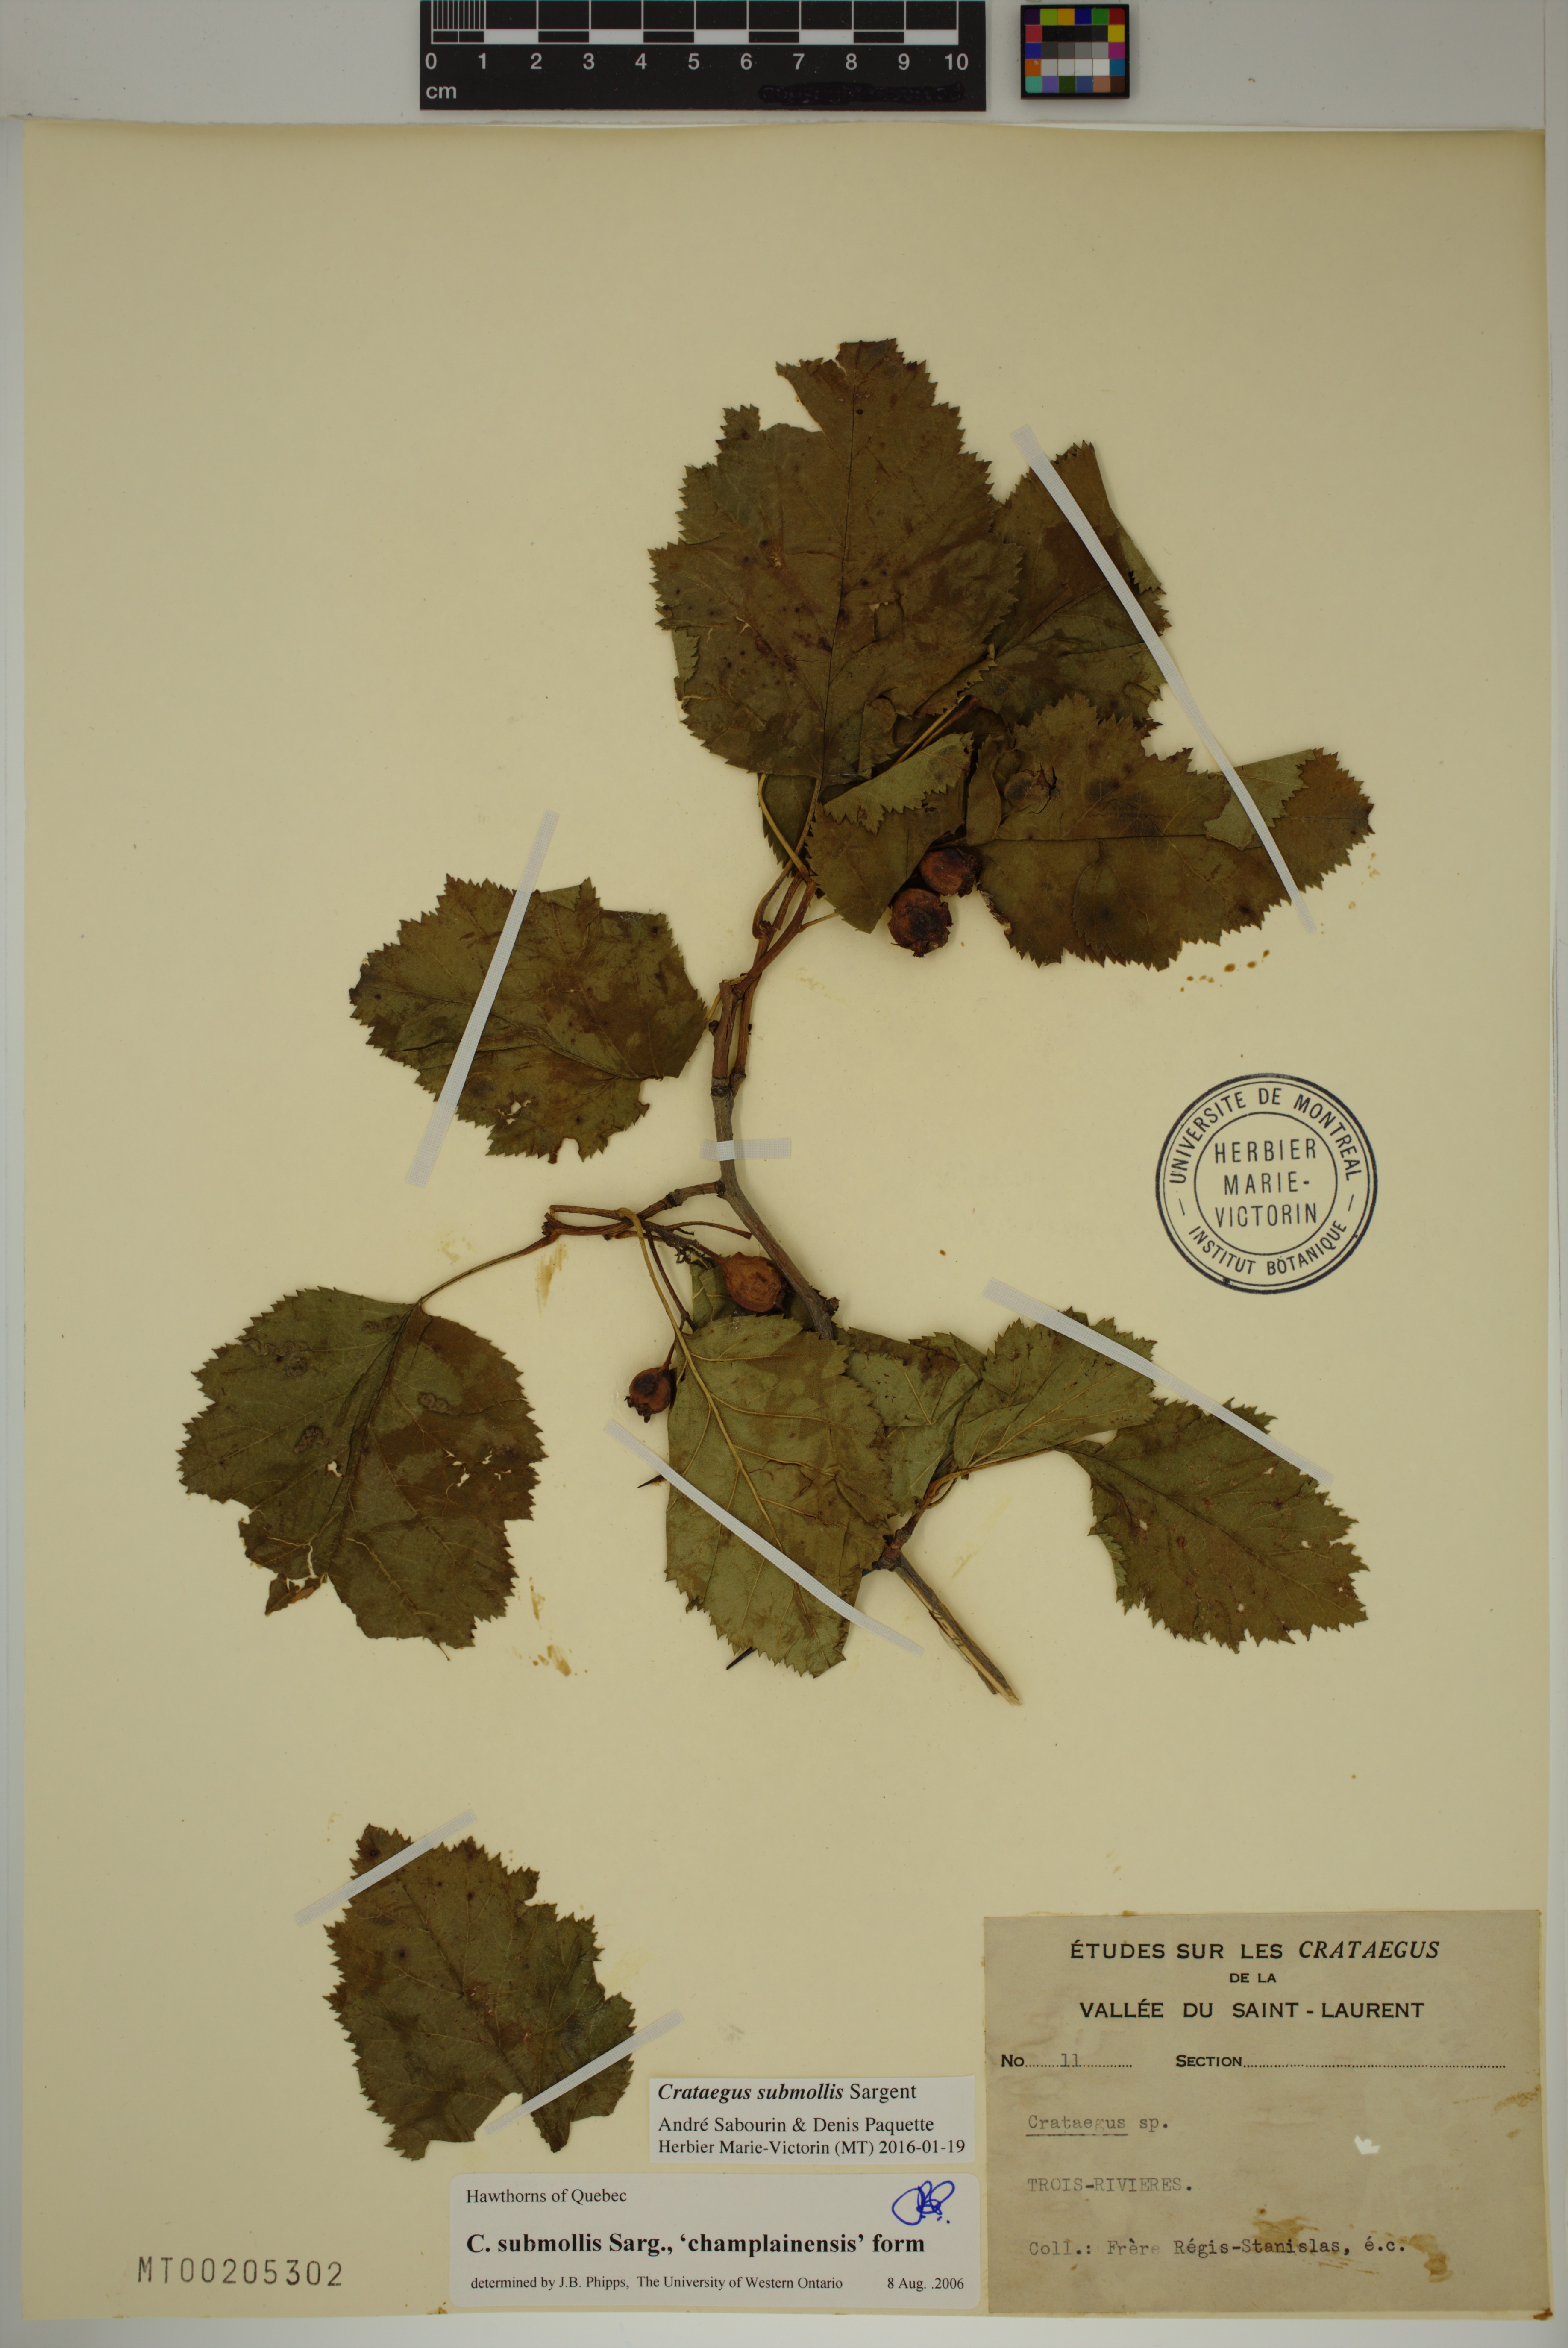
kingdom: Plantae
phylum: Tracheophyta
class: Magnoliopsida
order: Rosales
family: Rosaceae
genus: Crataegus
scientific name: Crataegus submollis
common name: Hairy cockspurthorn
